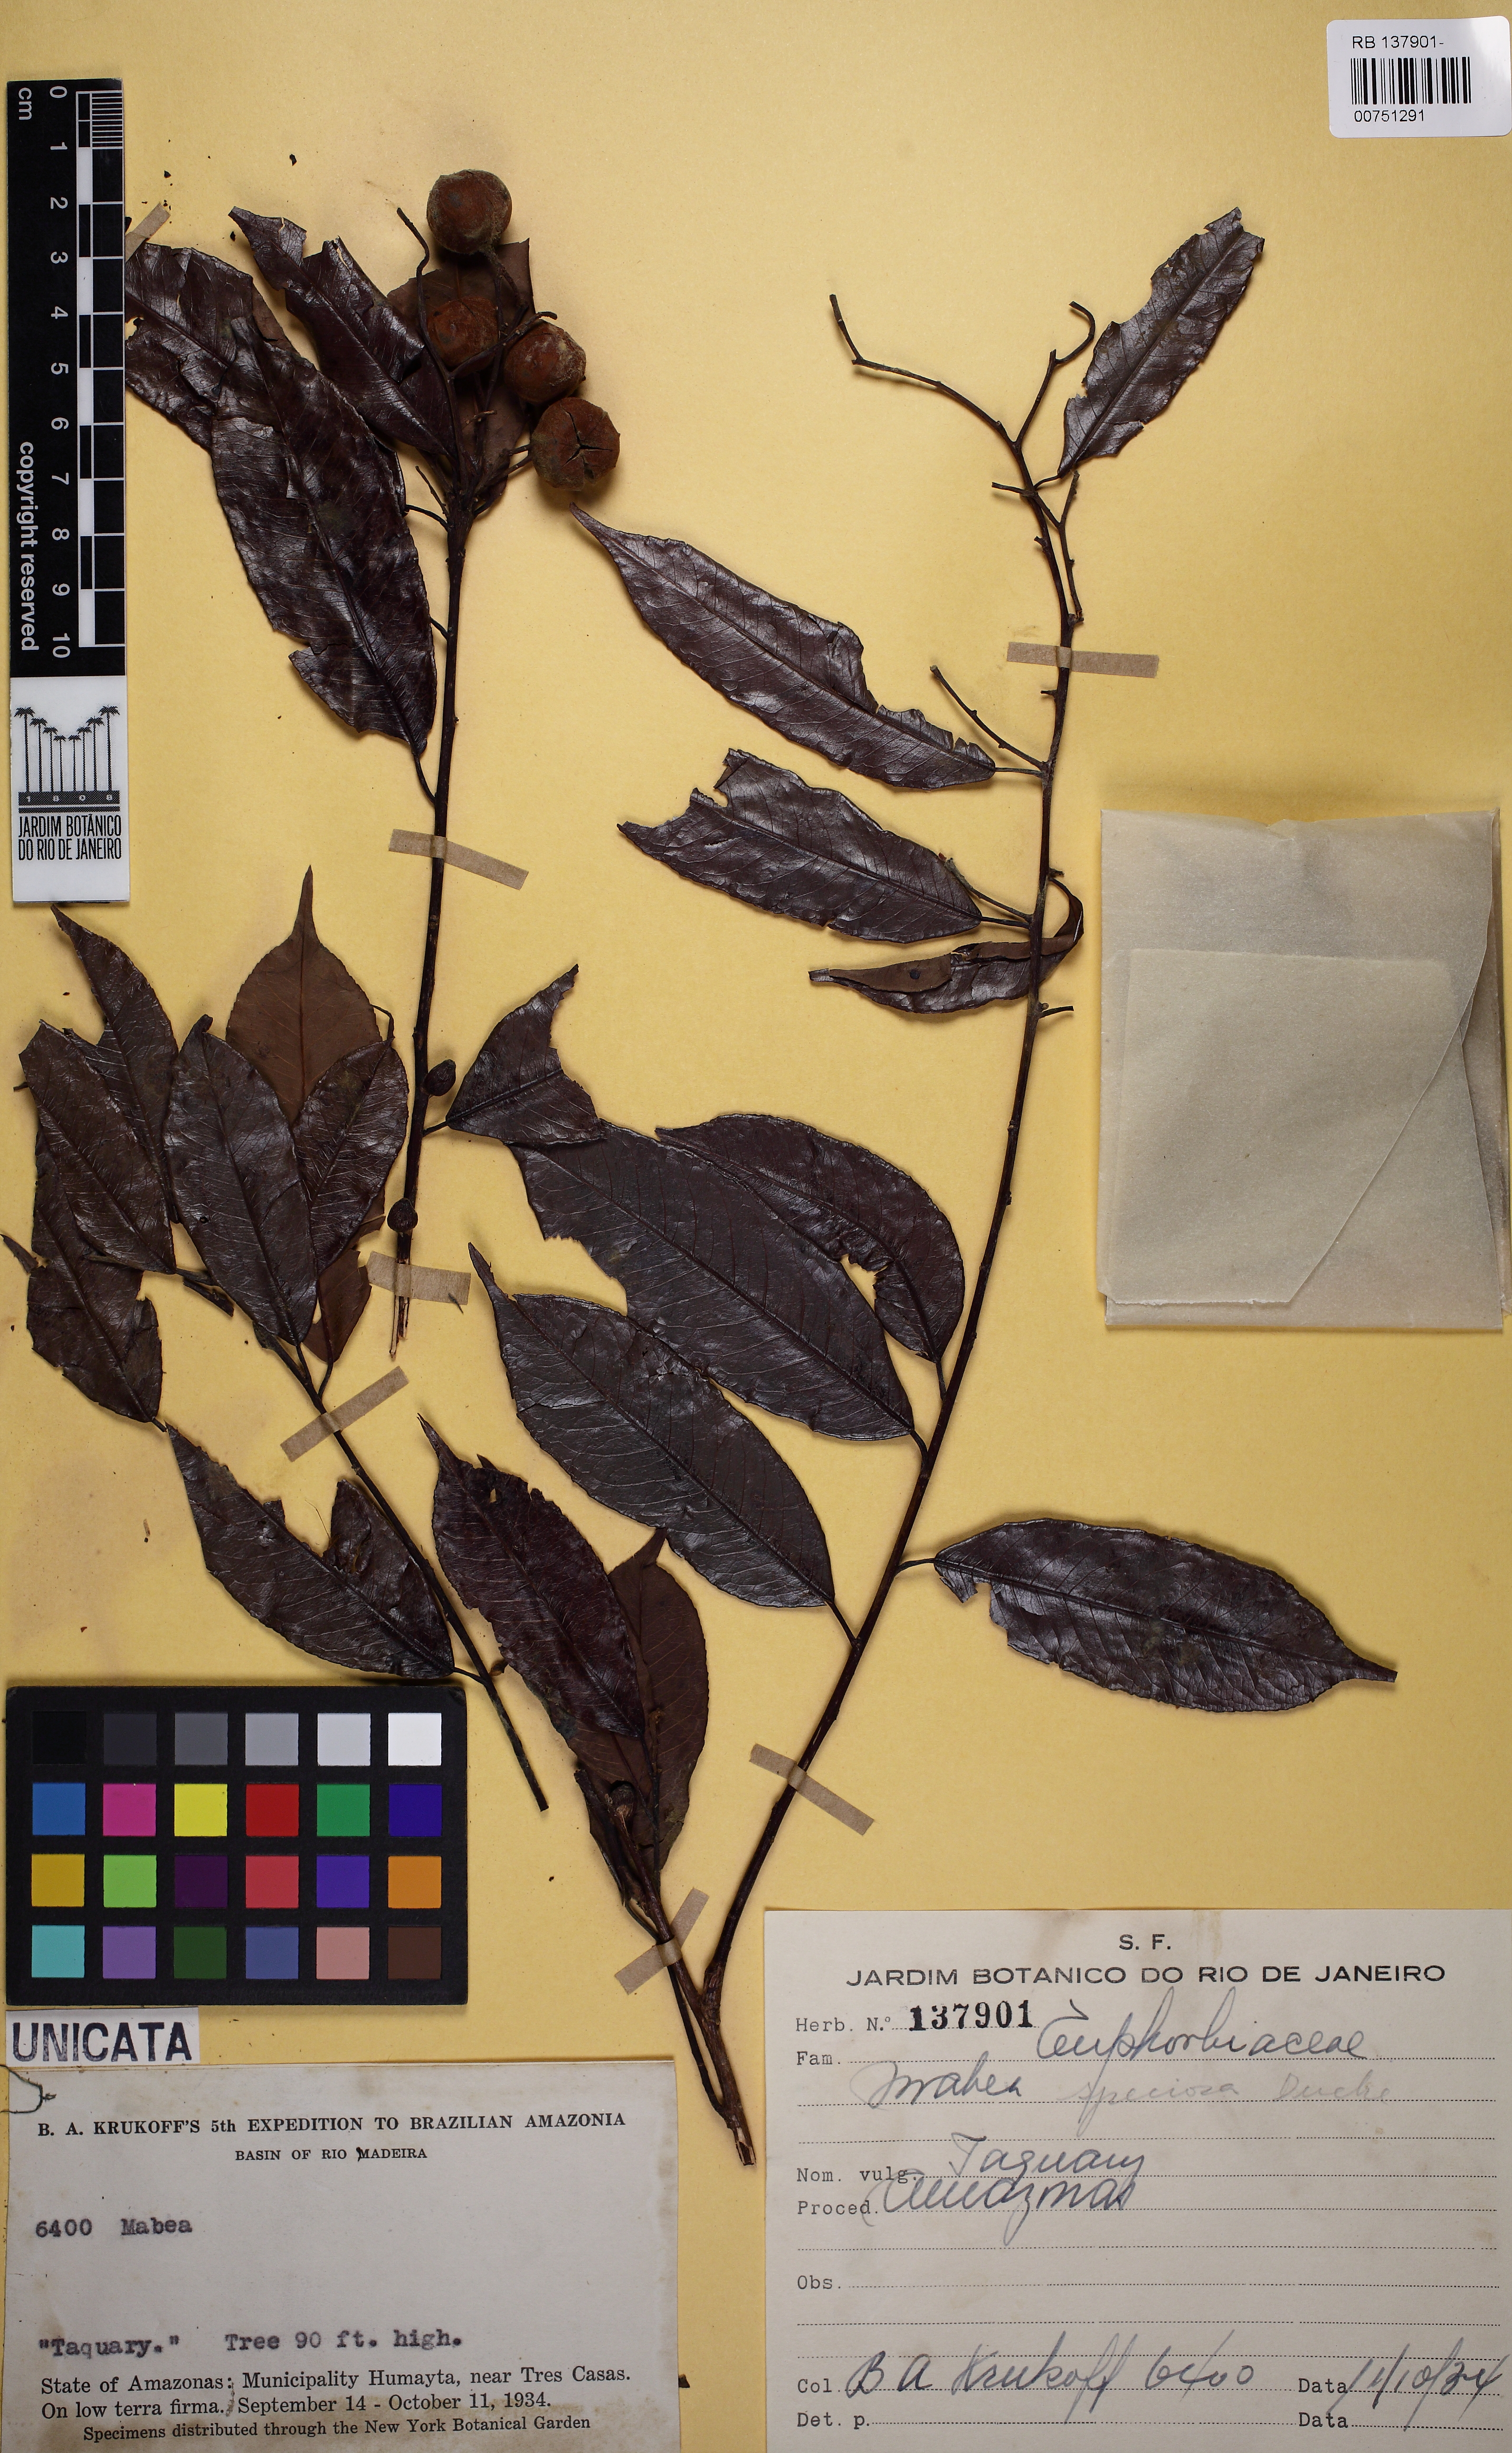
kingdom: Plantae
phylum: Tracheophyta
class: Magnoliopsida
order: Malpighiales
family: Euphorbiaceae
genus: Mabea
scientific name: Mabea speciosa
